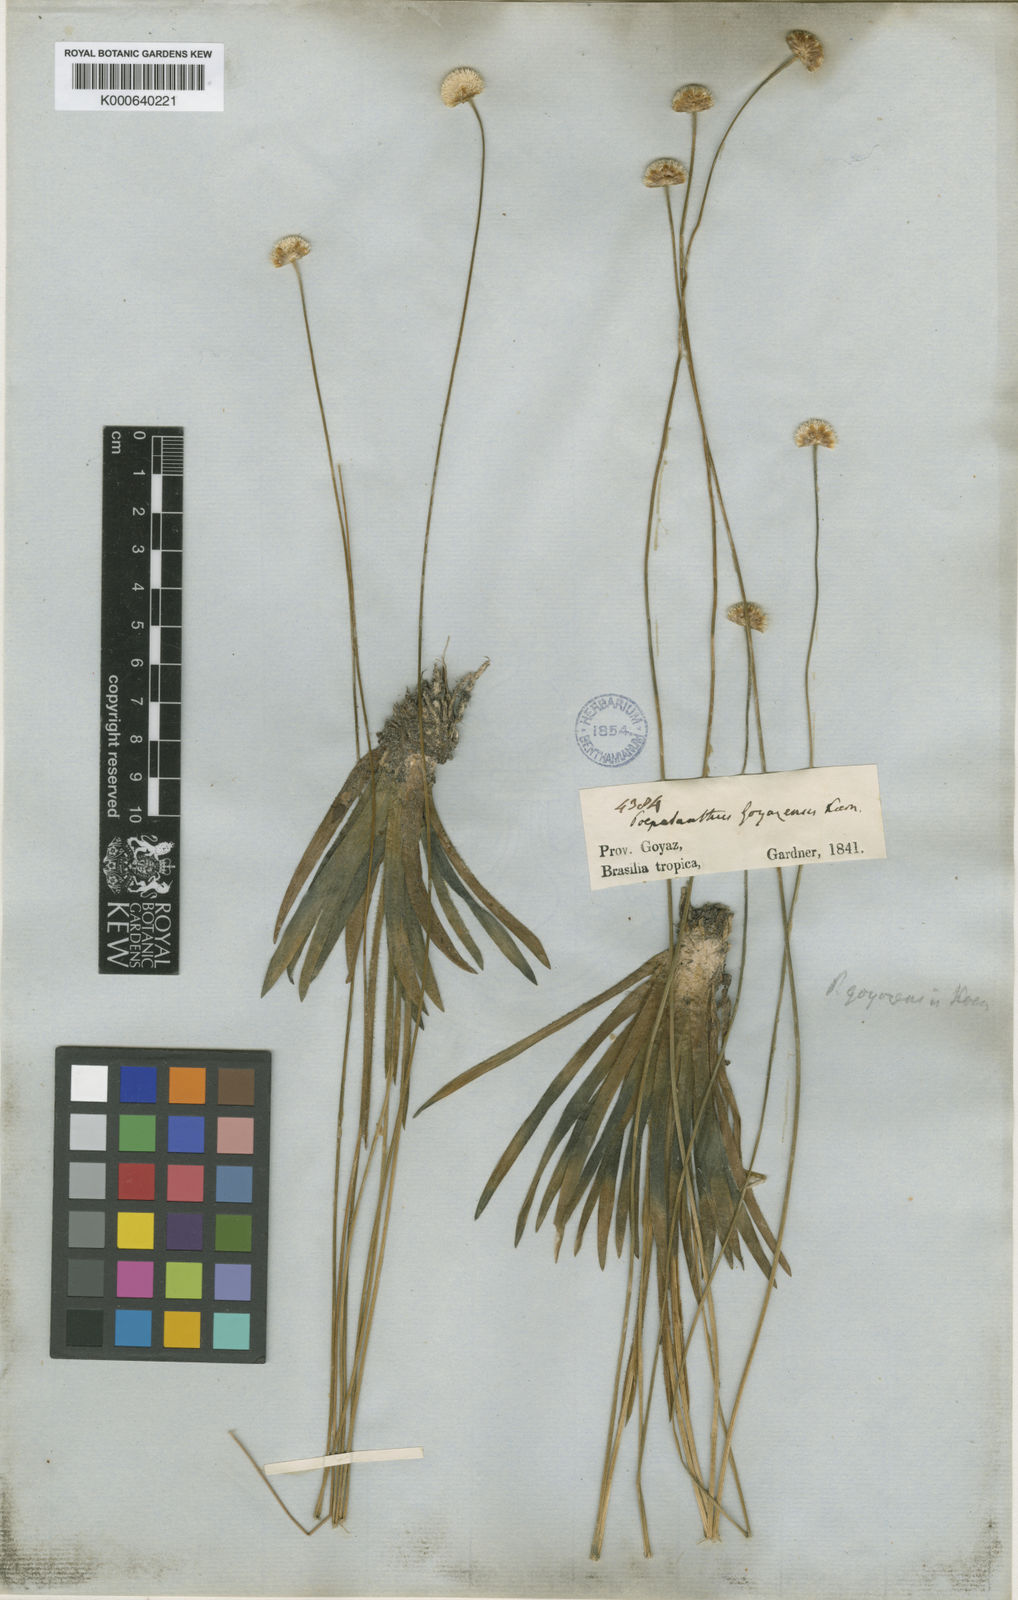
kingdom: Plantae
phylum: Tracheophyta
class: Liliopsida
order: Poales
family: Eriocaulaceae
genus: Syngonanthus
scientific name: Syngonanthus
